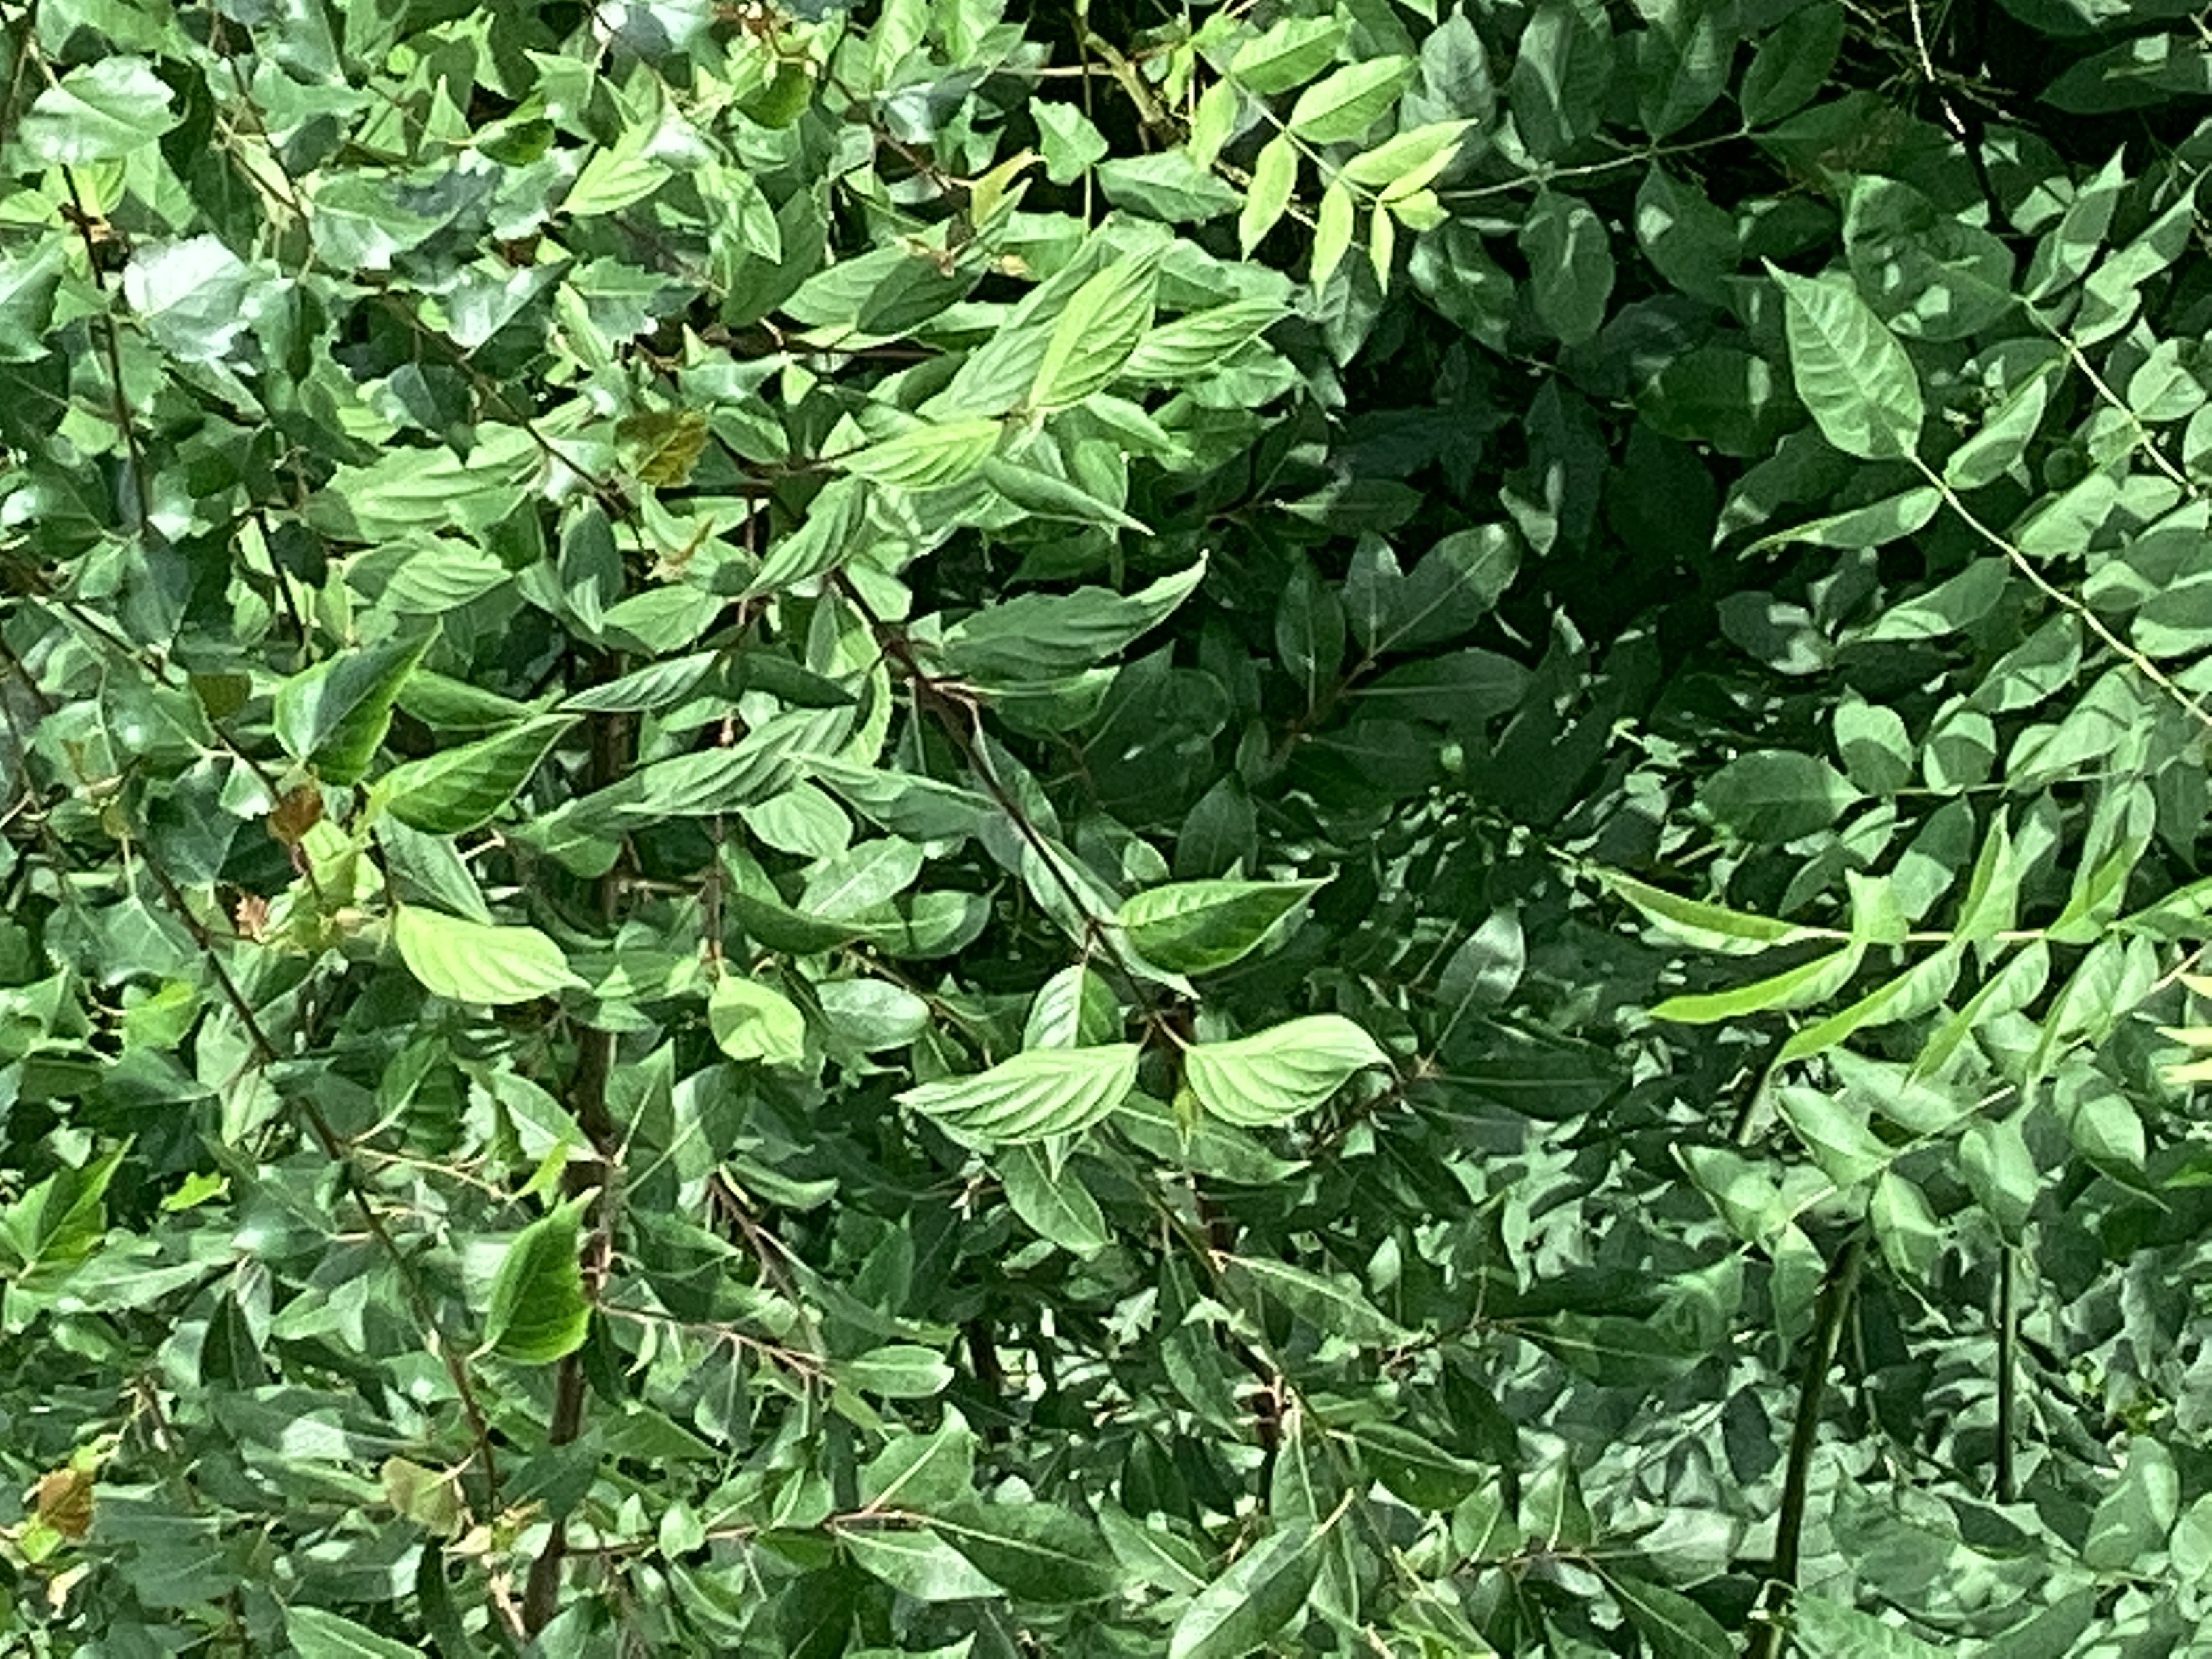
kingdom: Plantae
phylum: Tracheophyta
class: Magnoliopsida
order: Cornales
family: Cornaceae
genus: Cornus
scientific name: Cornus sericea
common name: alaskakornell
